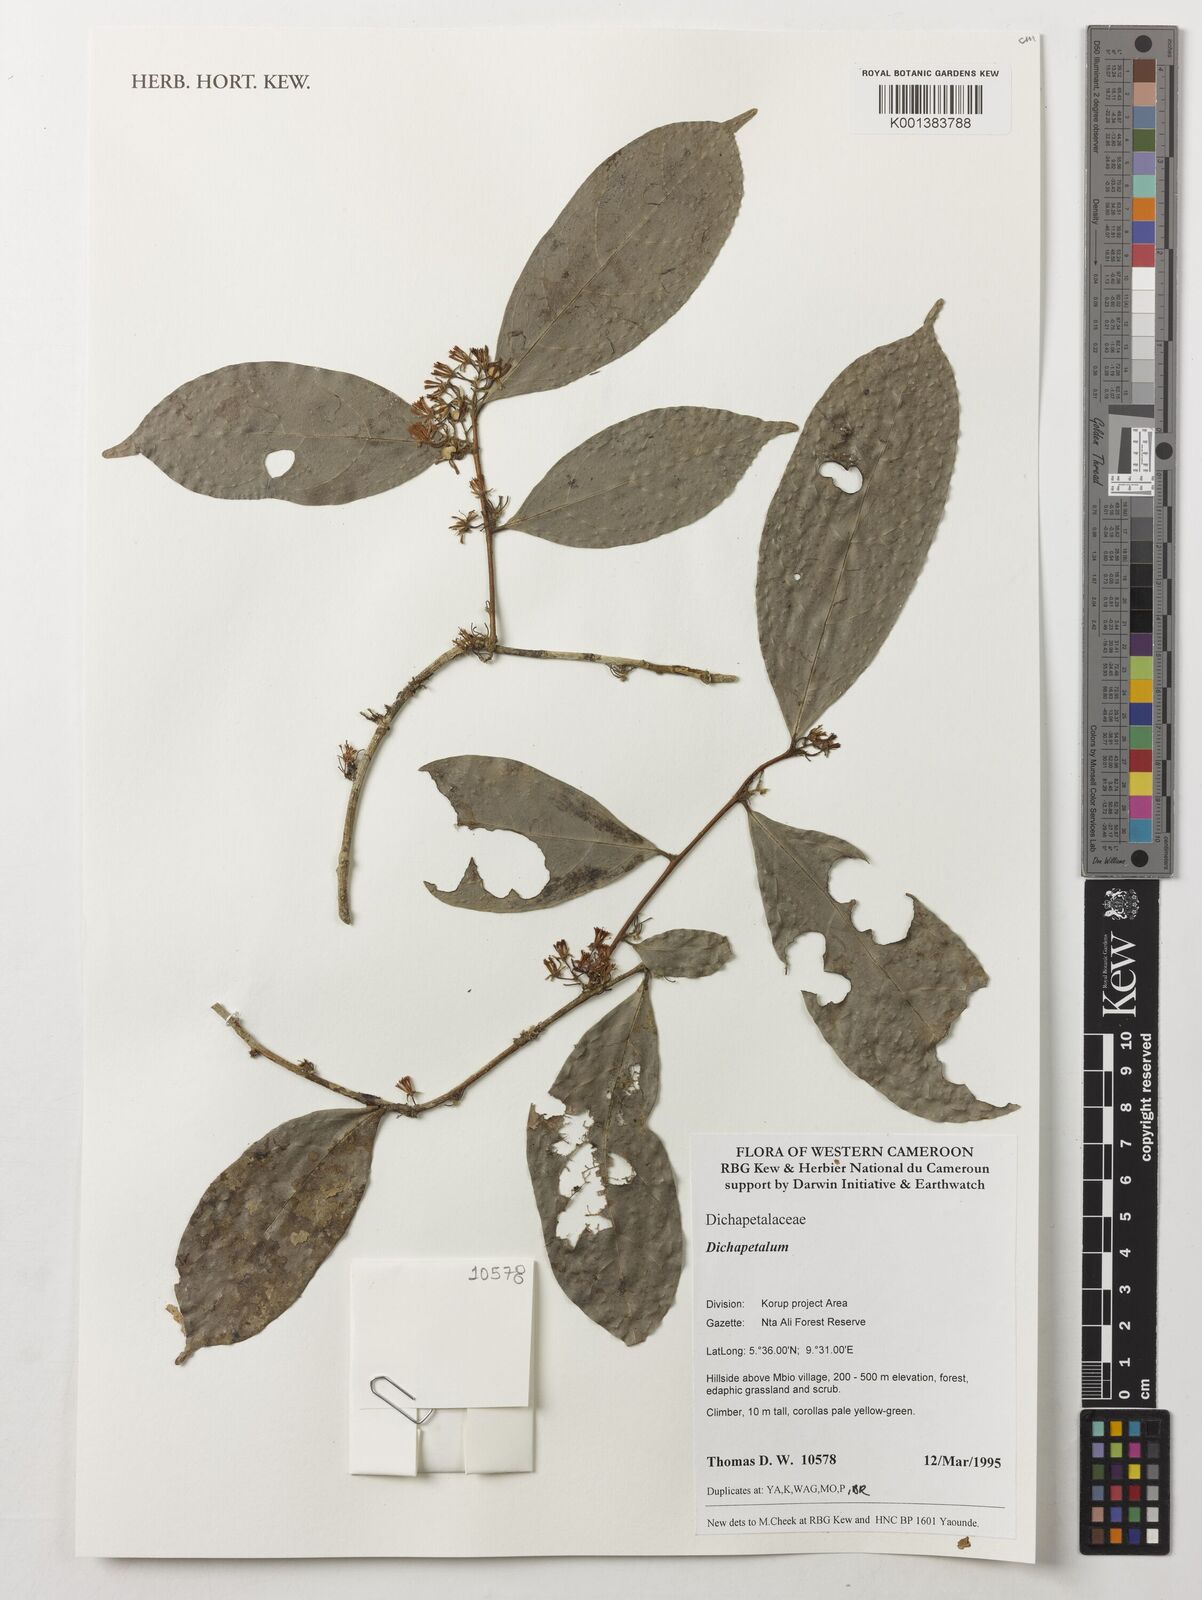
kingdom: Plantae
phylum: Tracheophyta
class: Magnoliopsida
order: Malpighiales
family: Dichapetalaceae
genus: Dichapetalum
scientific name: Dichapetalum
